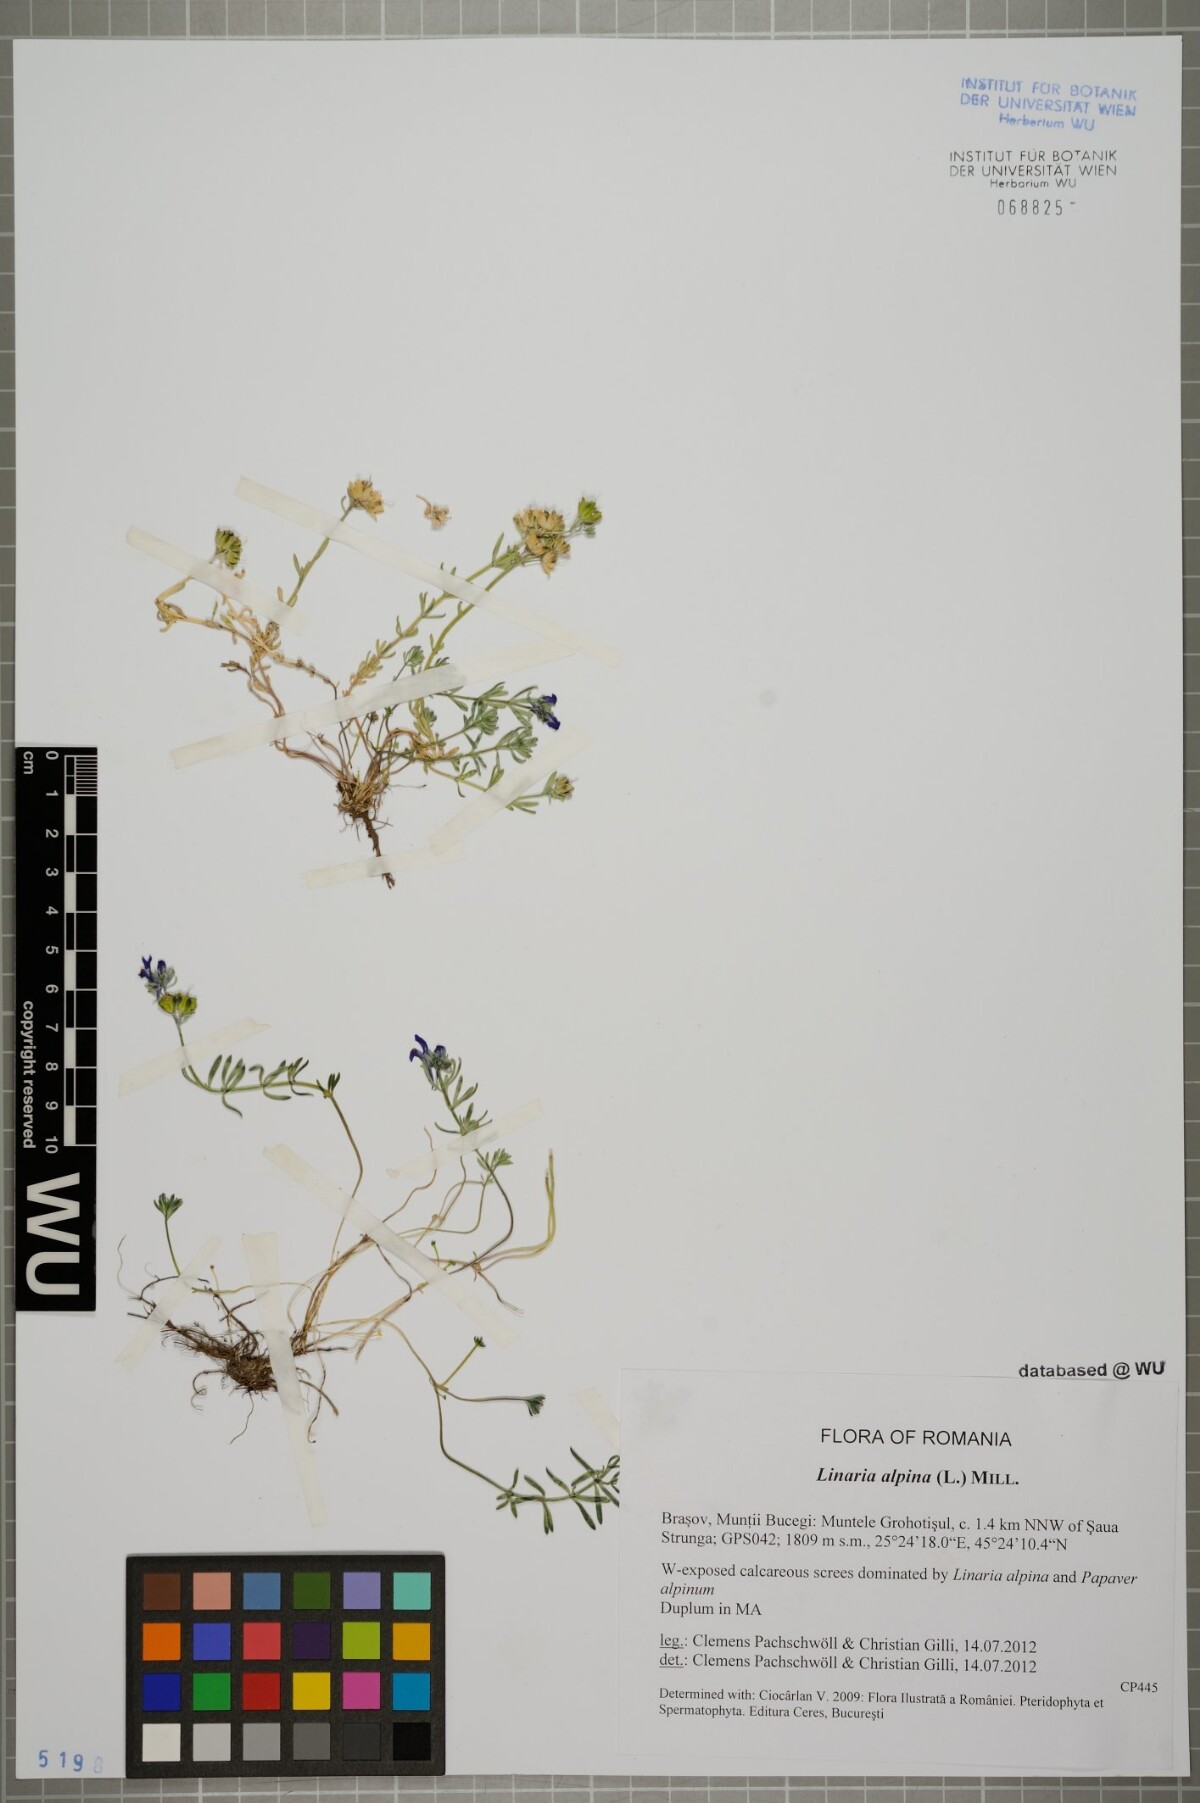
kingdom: Plantae
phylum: Tracheophyta
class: Magnoliopsida
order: Lamiales
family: Plantaginaceae
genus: Linaria
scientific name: Linaria alpina
